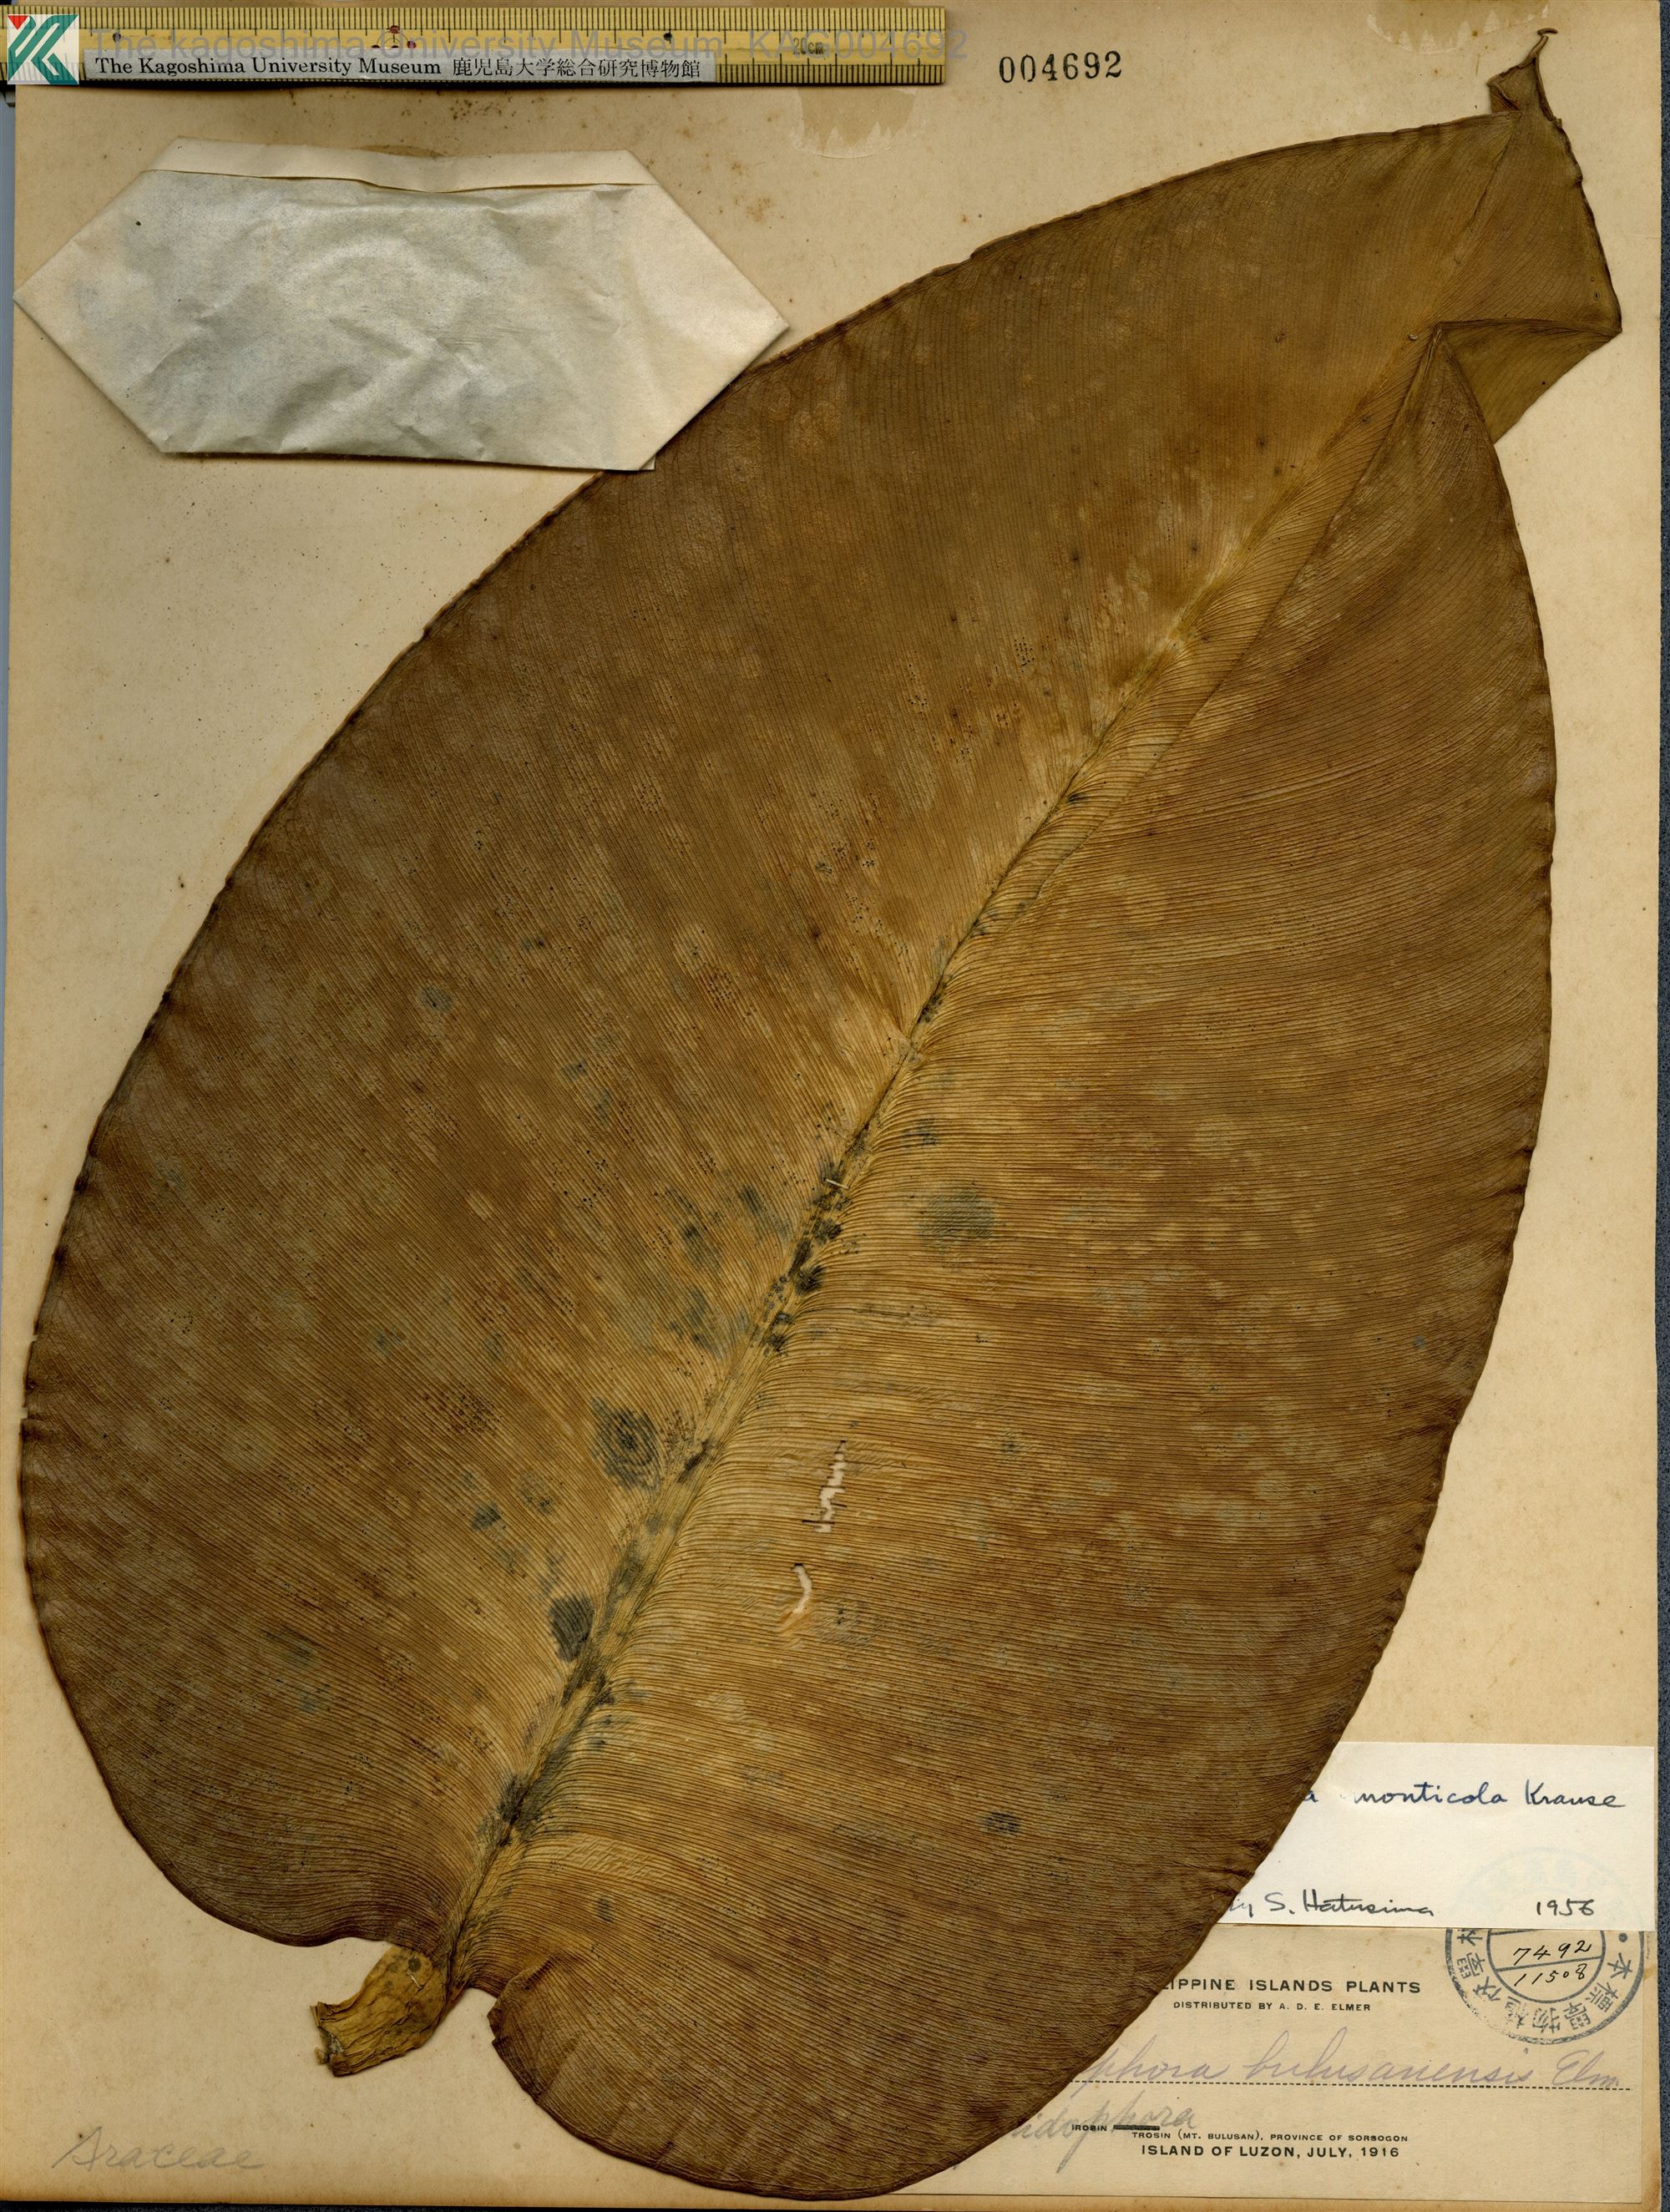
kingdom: Plantae
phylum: Tracheophyta
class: Liliopsida
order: Alismatales
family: Araceae
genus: Rhaphidophora
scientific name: Rhaphidophora monticola
